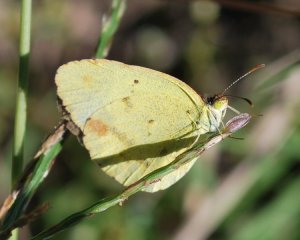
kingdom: Animalia
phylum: Arthropoda
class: Insecta
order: Lepidoptera
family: Pieridae
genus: Pyrisitia
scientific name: Pyrisitia lisa
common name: Little Yellow
